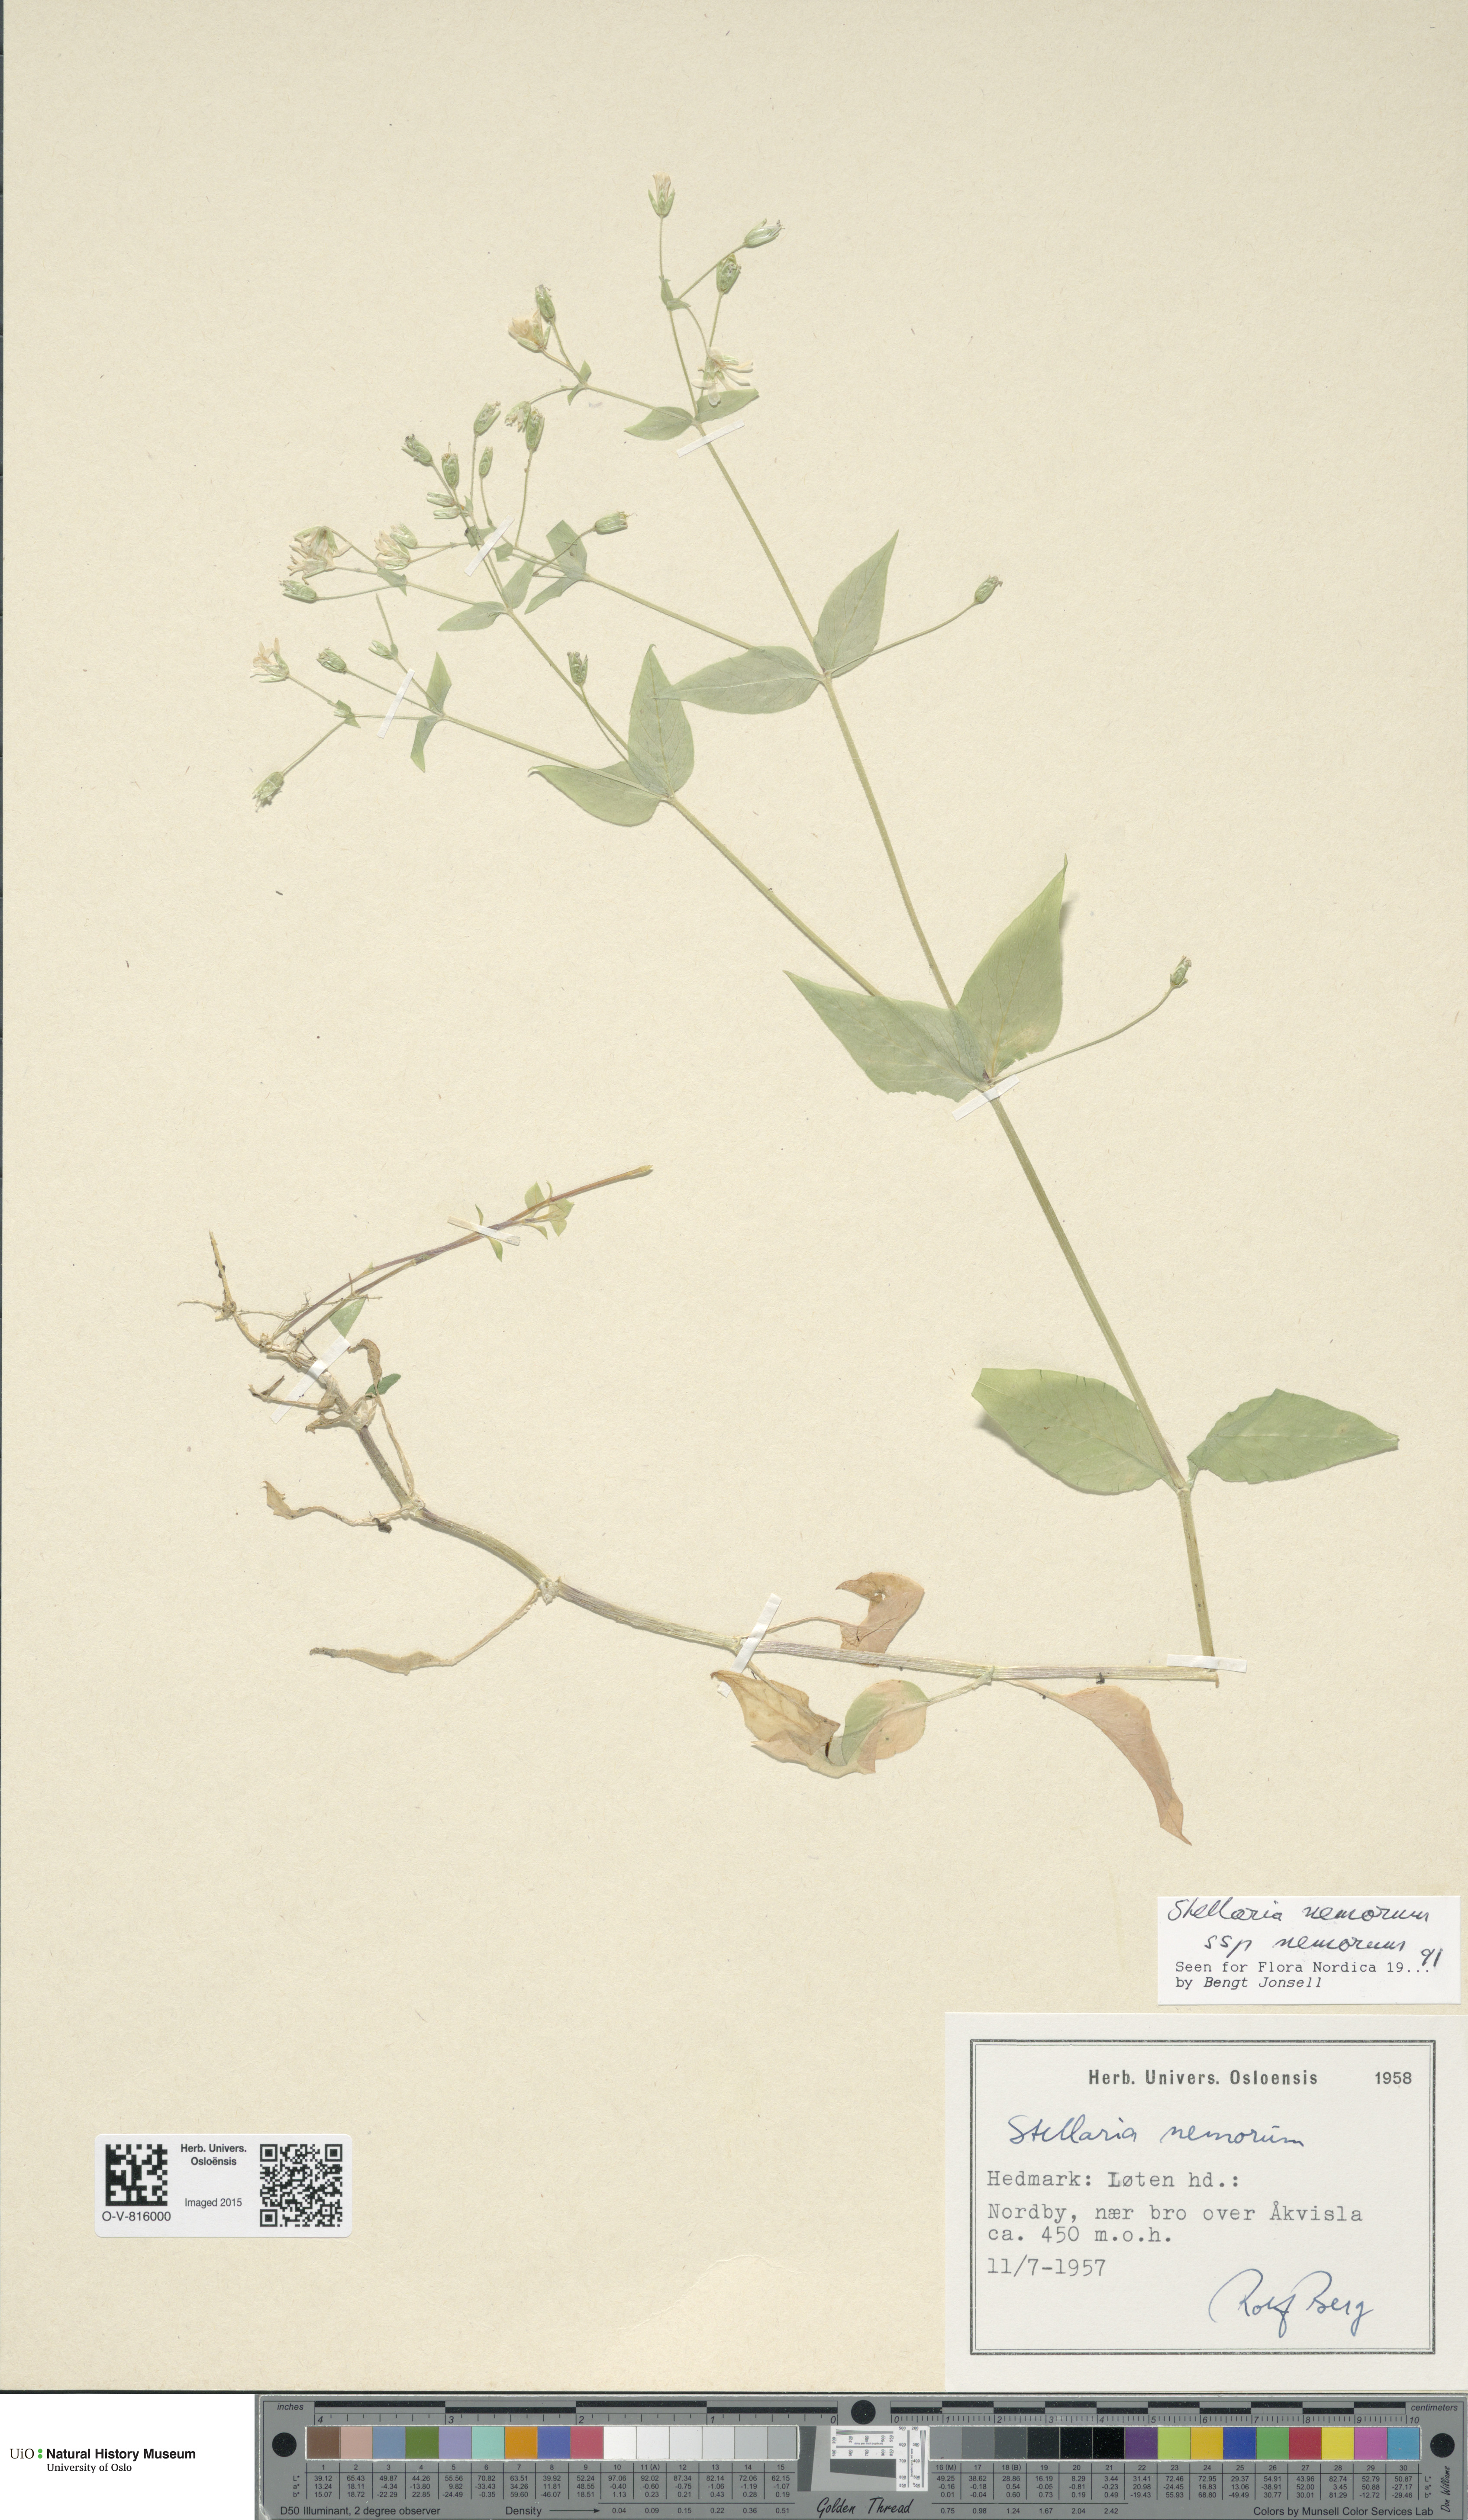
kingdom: Plantae
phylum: Tracheophyta
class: Magnoliopsida
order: Caryophyllales
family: Caryophyllaceae
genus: Stellaria
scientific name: Stellaria nemorum
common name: Wood stitchwort
